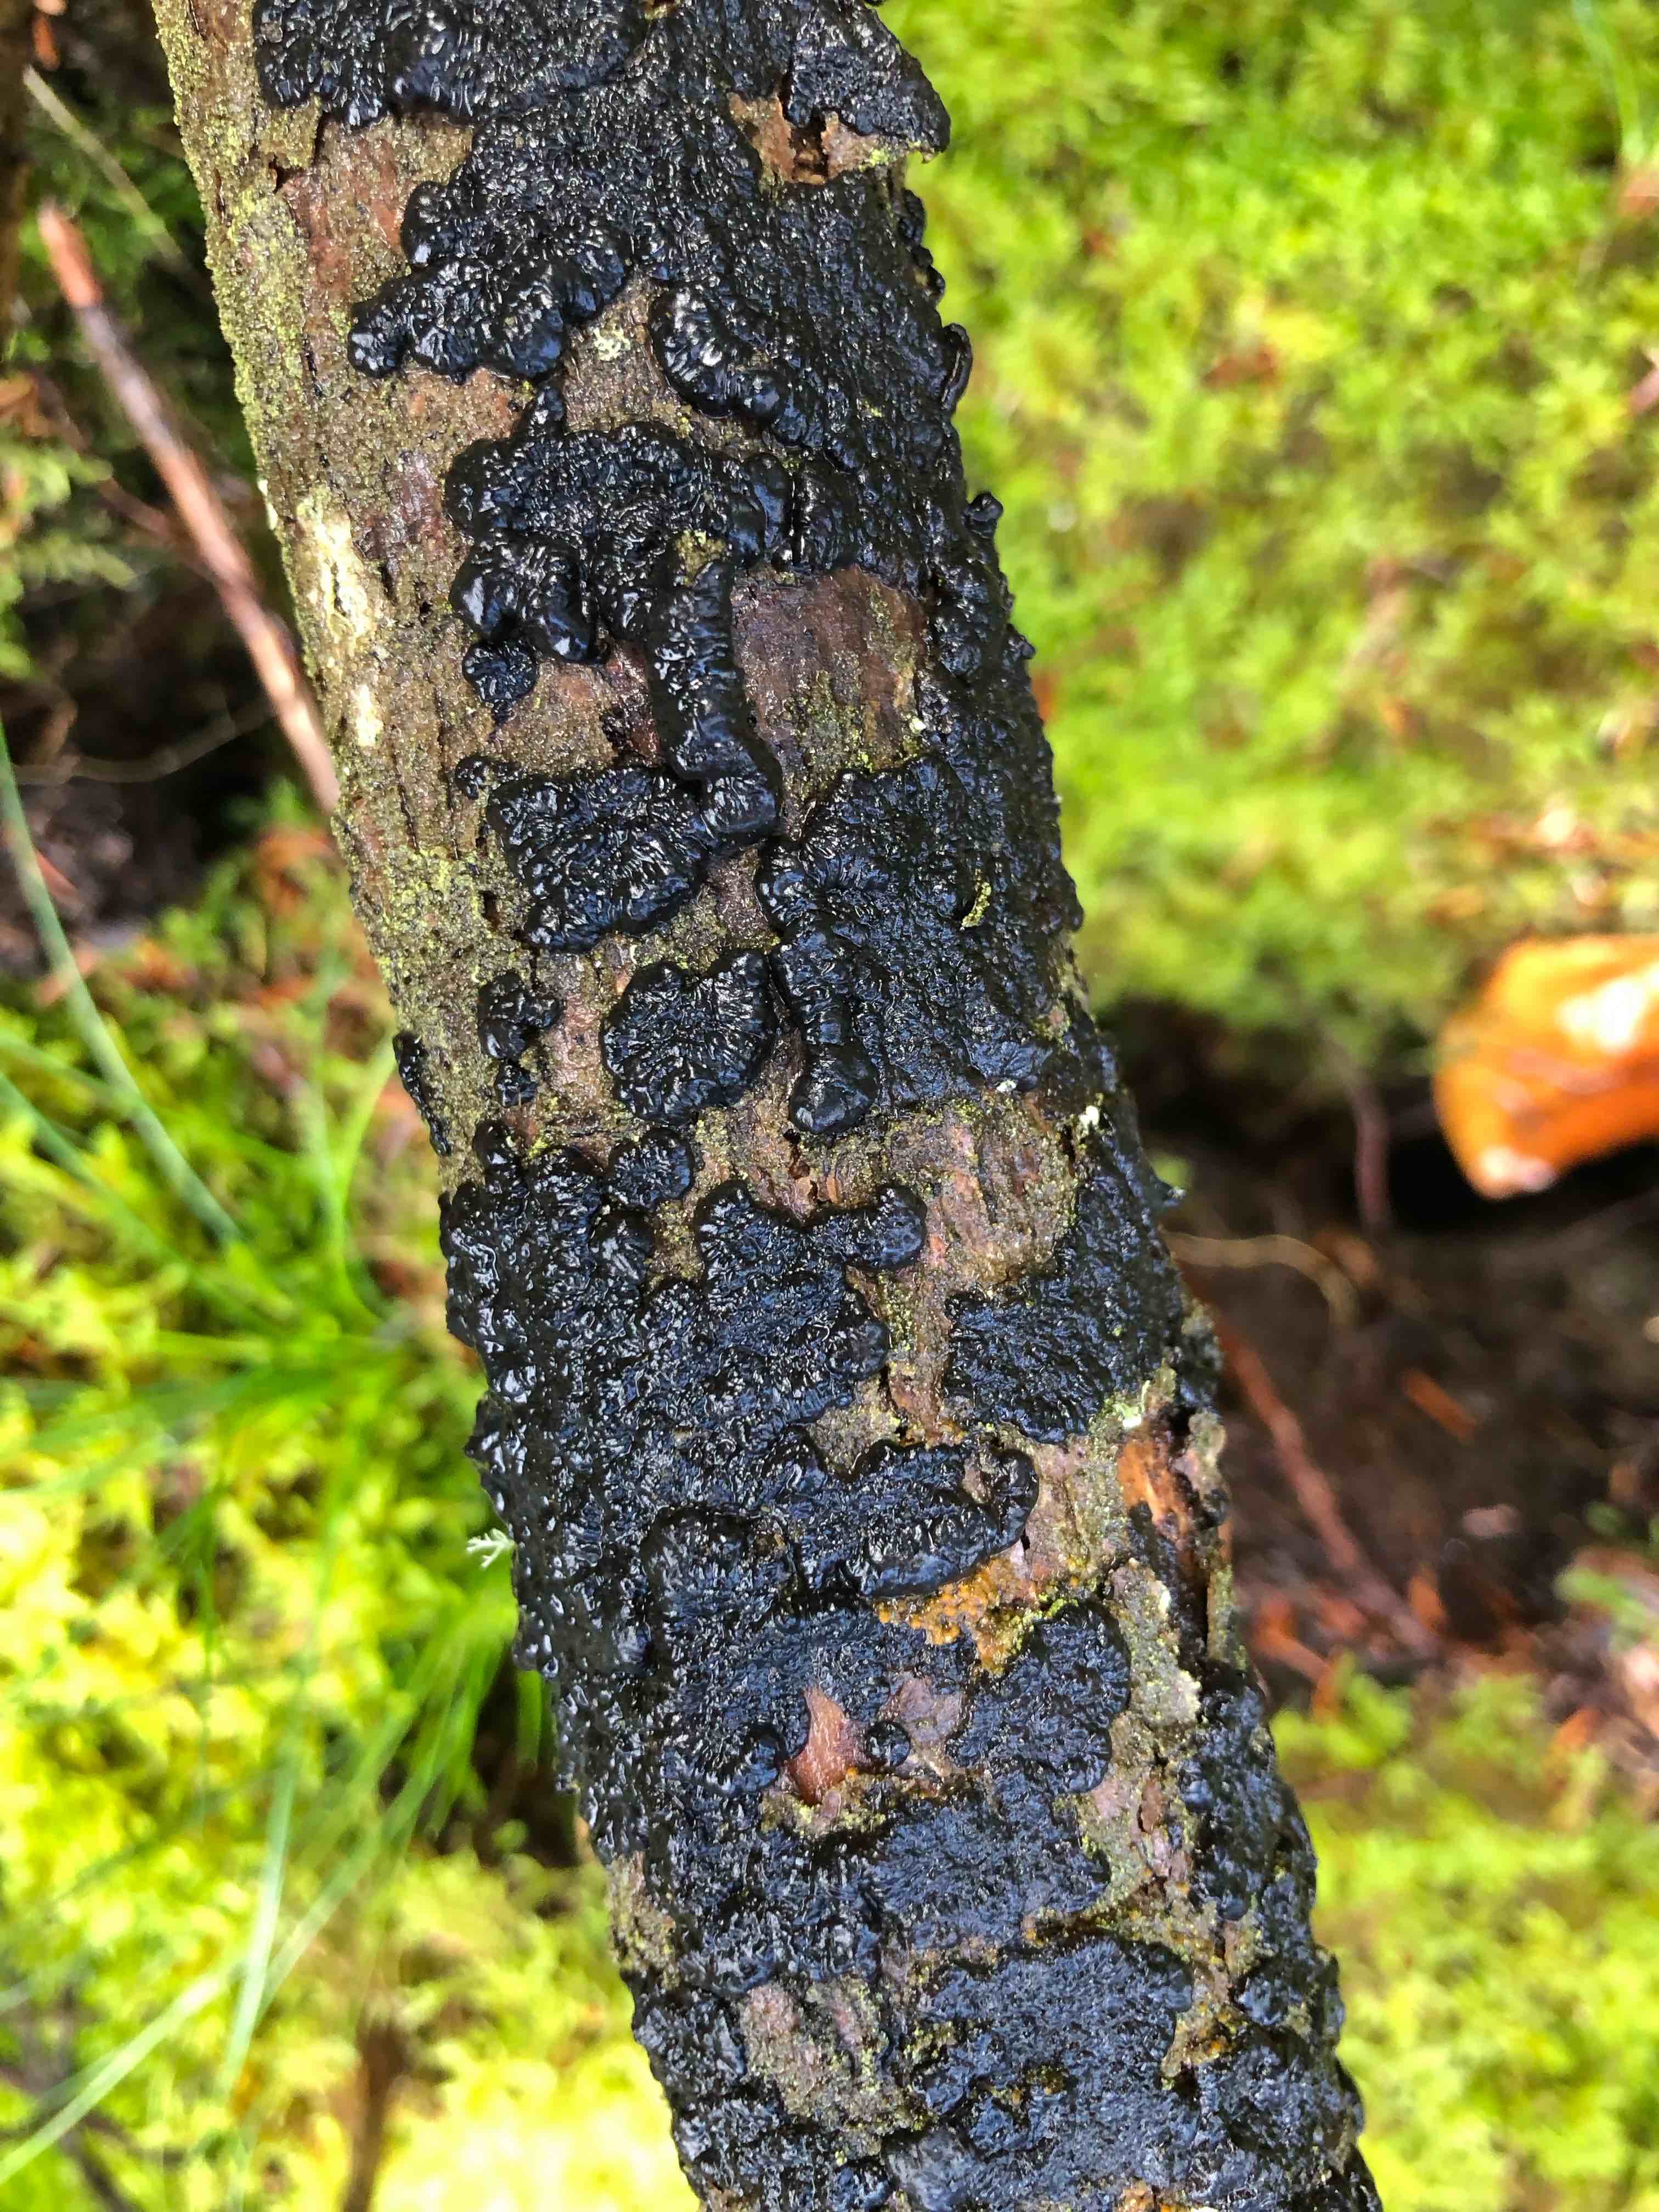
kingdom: Fungi
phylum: Basidiomycota
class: Agaricomycetes
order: Auriculariales
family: Auriculariaceae
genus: Exidia
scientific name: Exidia pithya
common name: gran-bævretop
